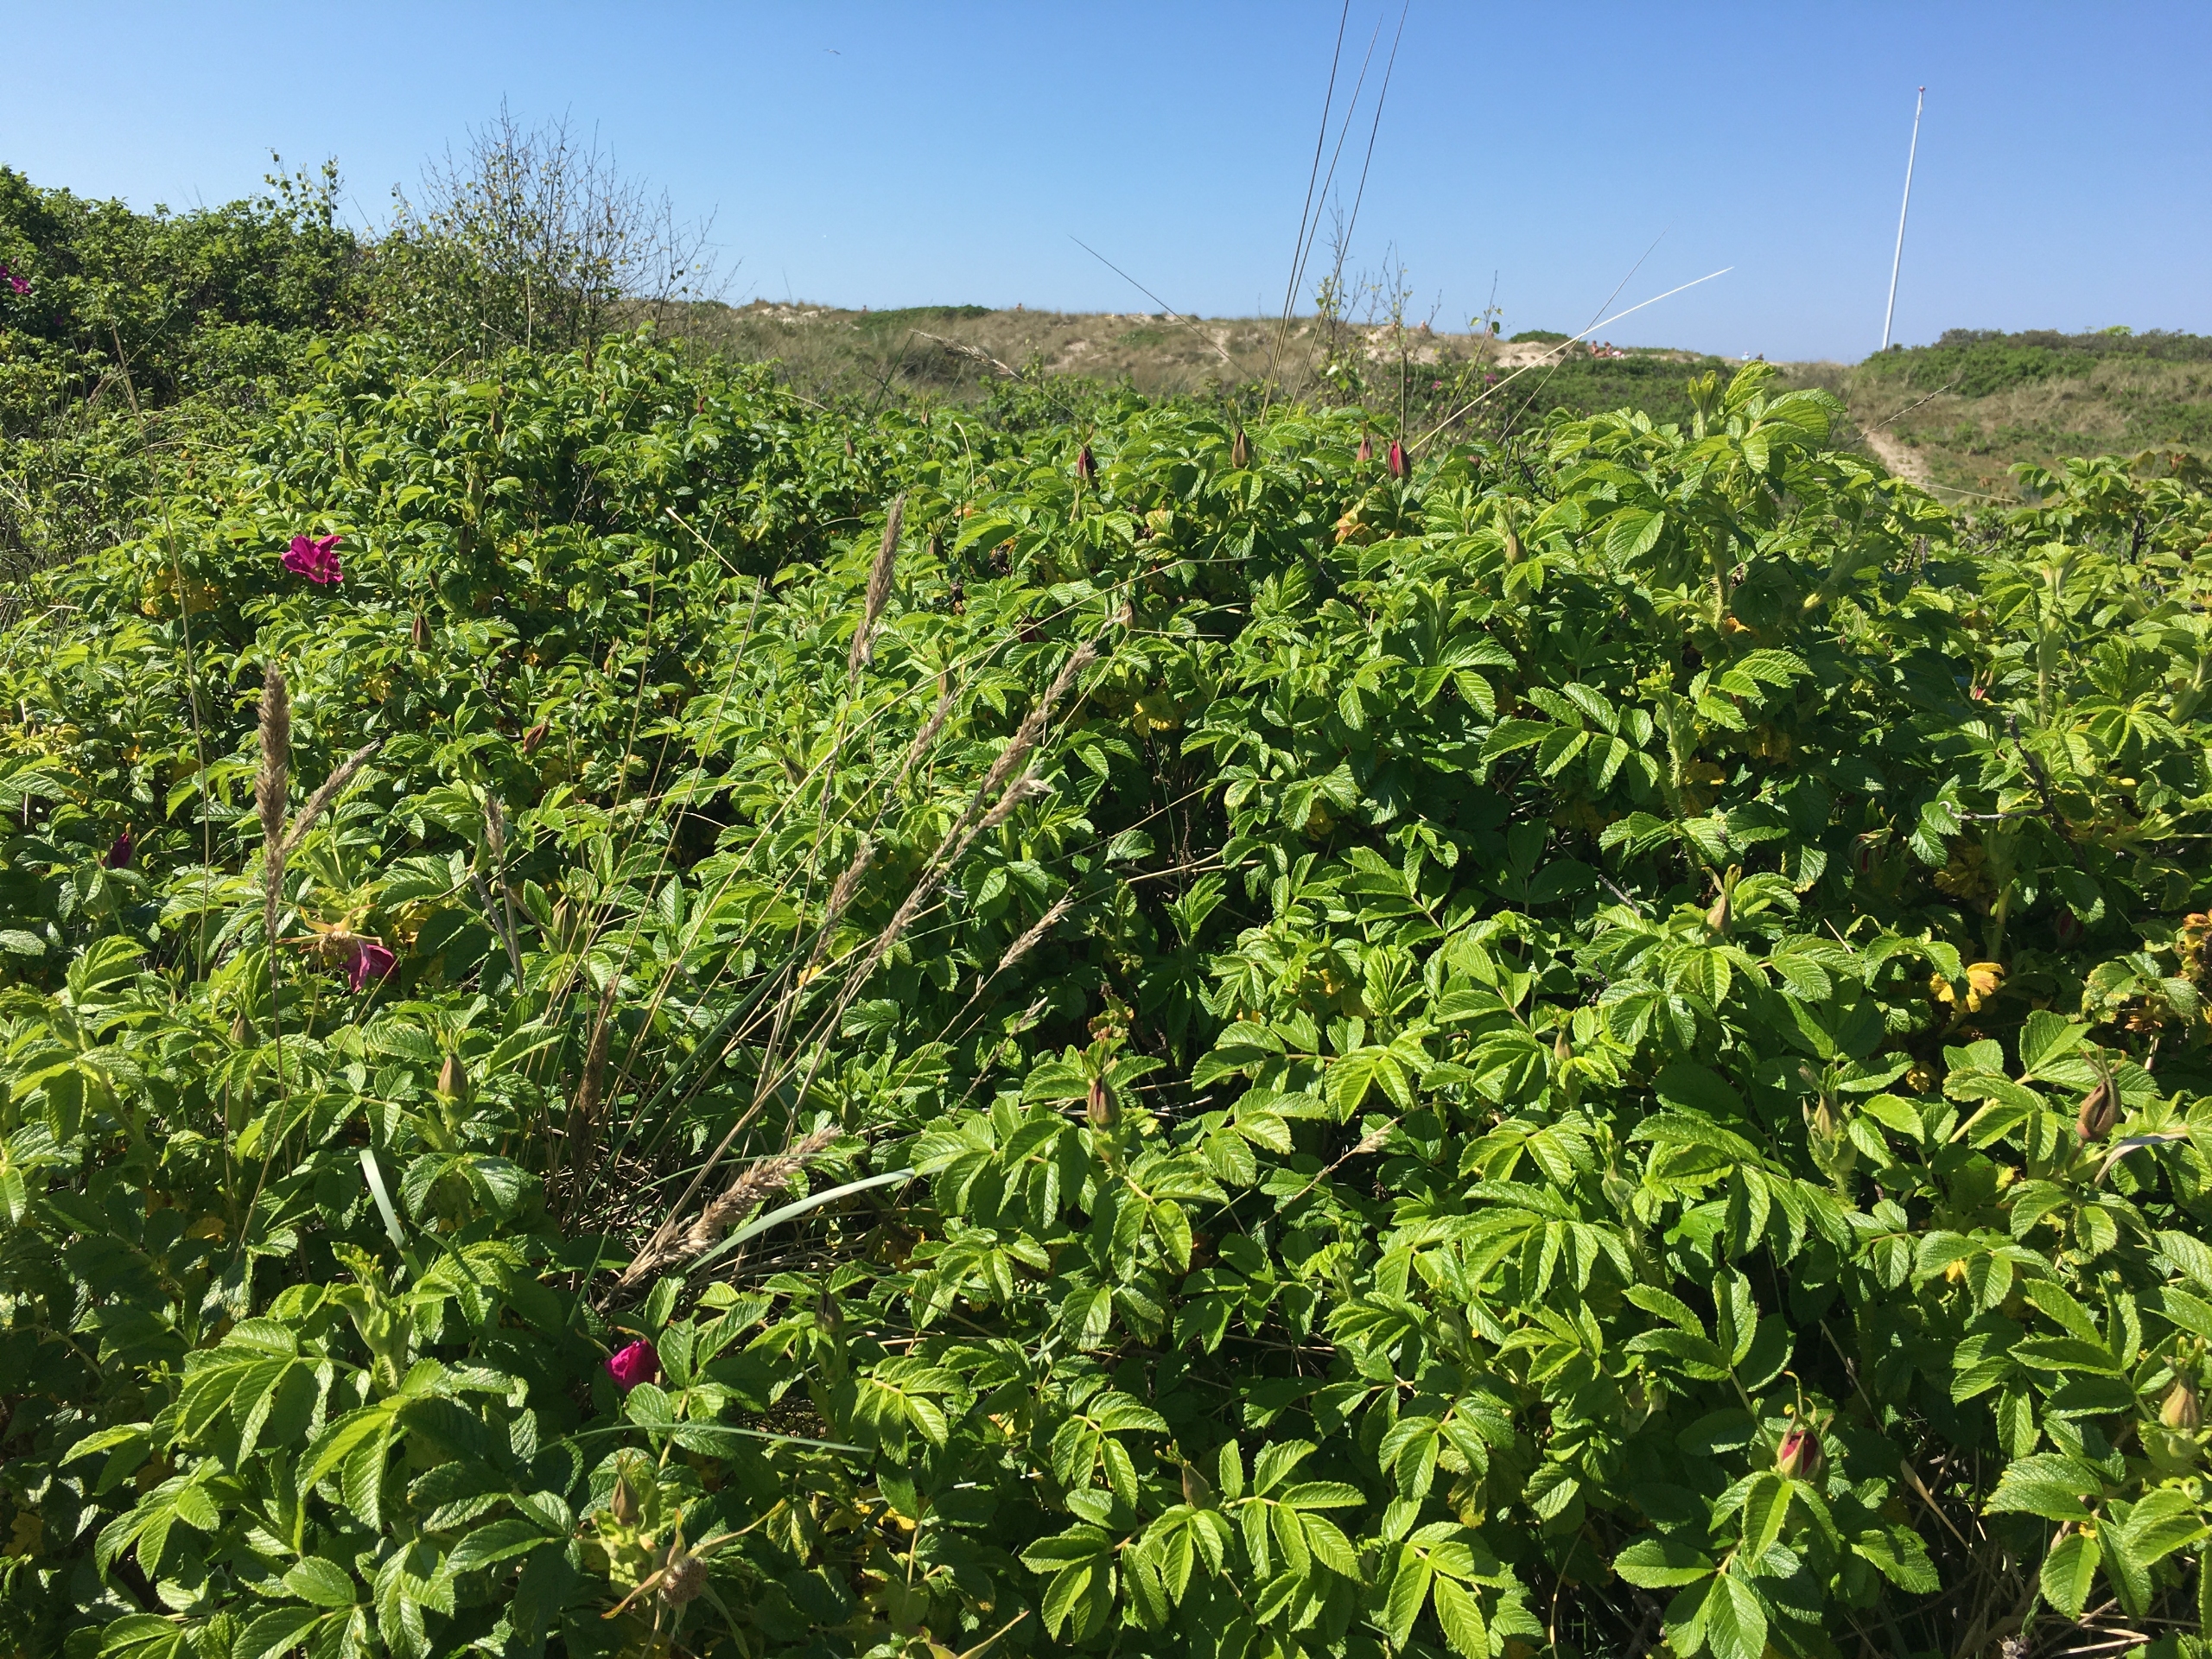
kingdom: Plantae
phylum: Tracheophyta
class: Magnoliopsida
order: Rosales
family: Rosaceae
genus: Rosa
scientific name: Rosa rugosa
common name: Rynket rose
